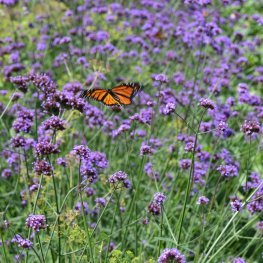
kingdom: Animalia
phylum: Arthropoda
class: Insecta
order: Lepidoptera
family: Nymphalidae
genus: Danaus
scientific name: Danaus plexippus
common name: Monarch
